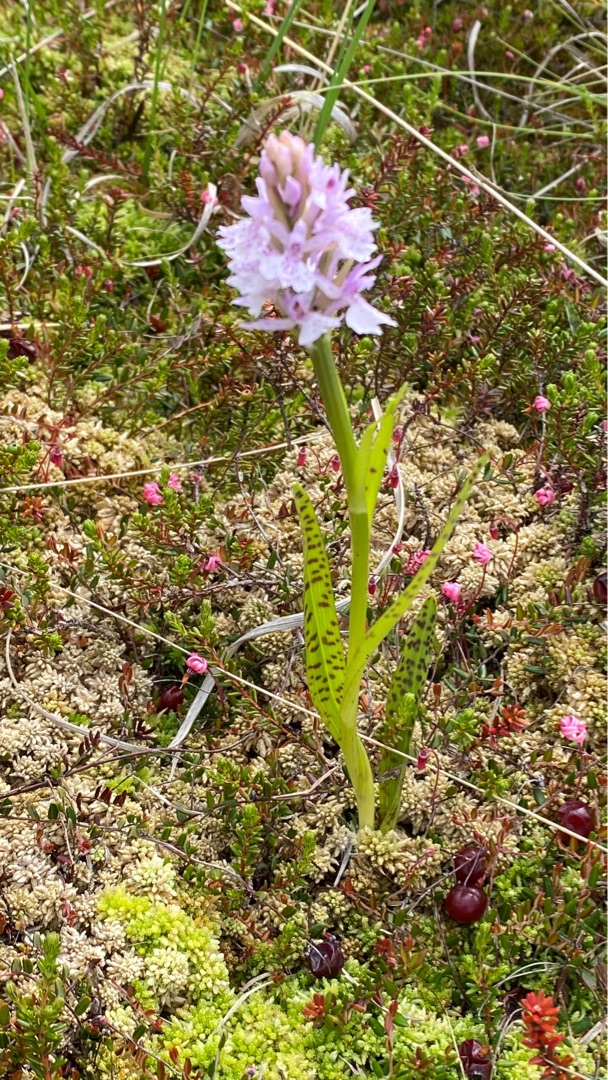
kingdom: Plantae
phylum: Tracheophyta
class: Liliopsida
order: Asparagales
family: Orchidaceae
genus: Dactylorhiza
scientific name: Dactylorhiza maculata
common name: Plettet gøgeurt
